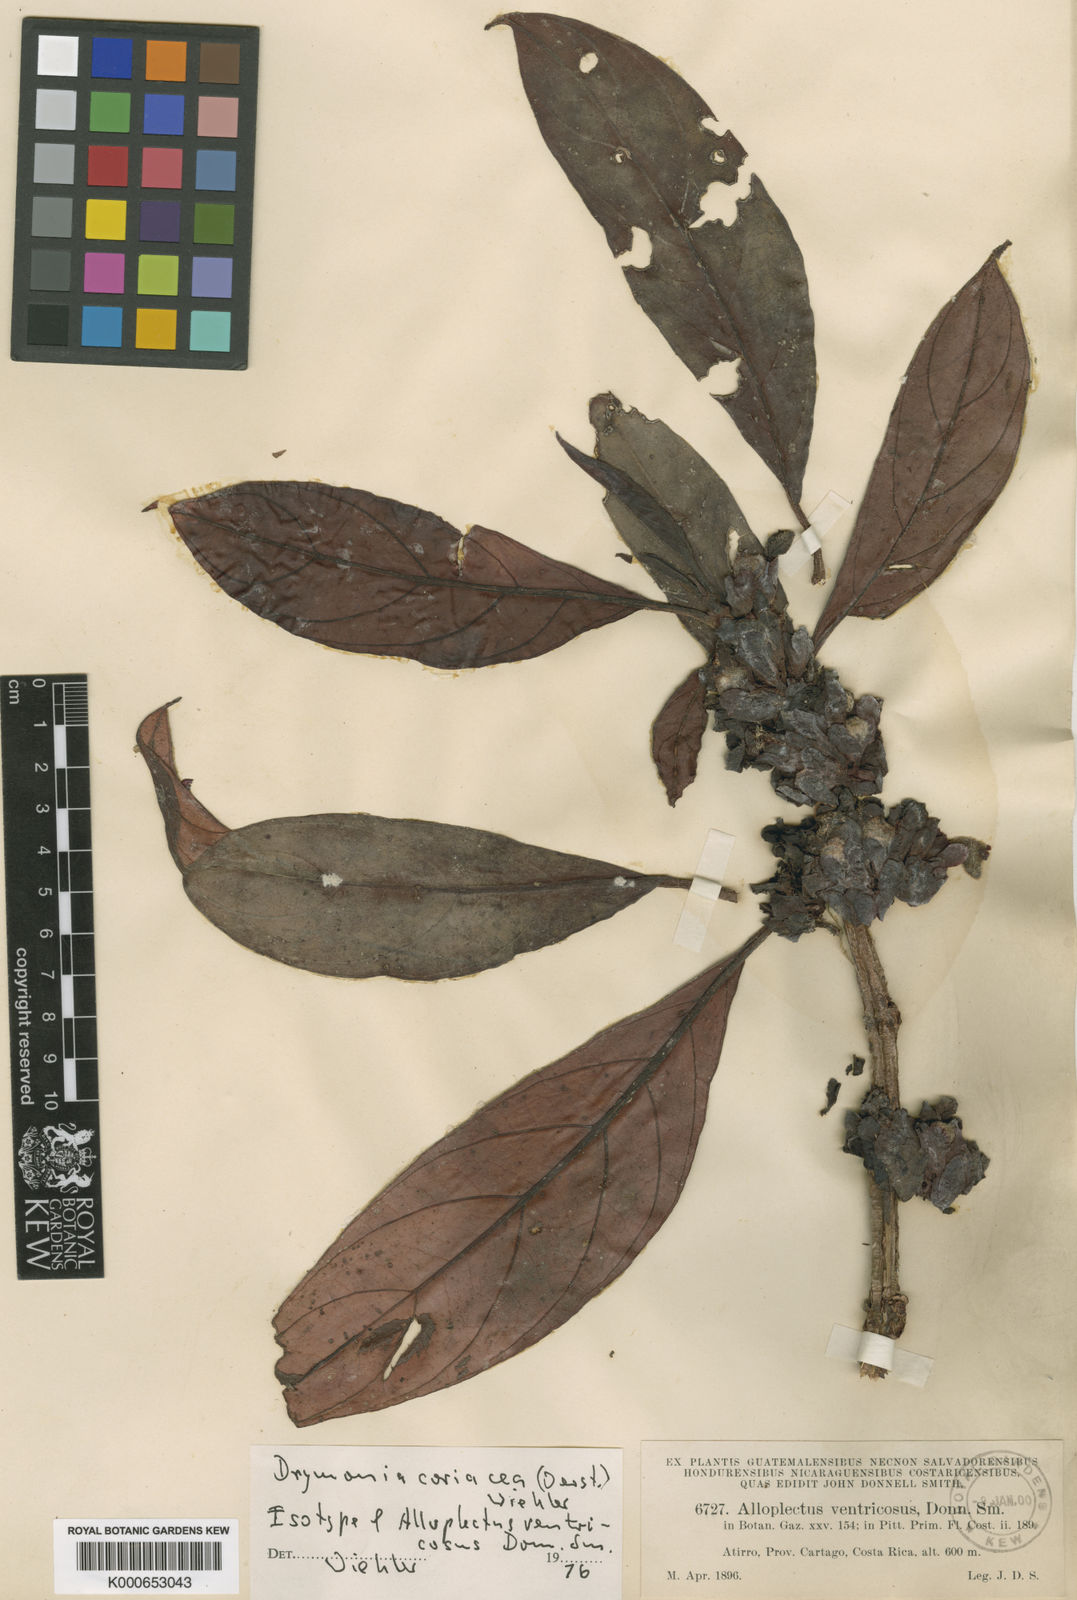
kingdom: Plantae
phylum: Tracheophyta
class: Magnoliopsida
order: Lamiales
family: Gesneriaceae
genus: Drymonia
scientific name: Drymonia coriacea
